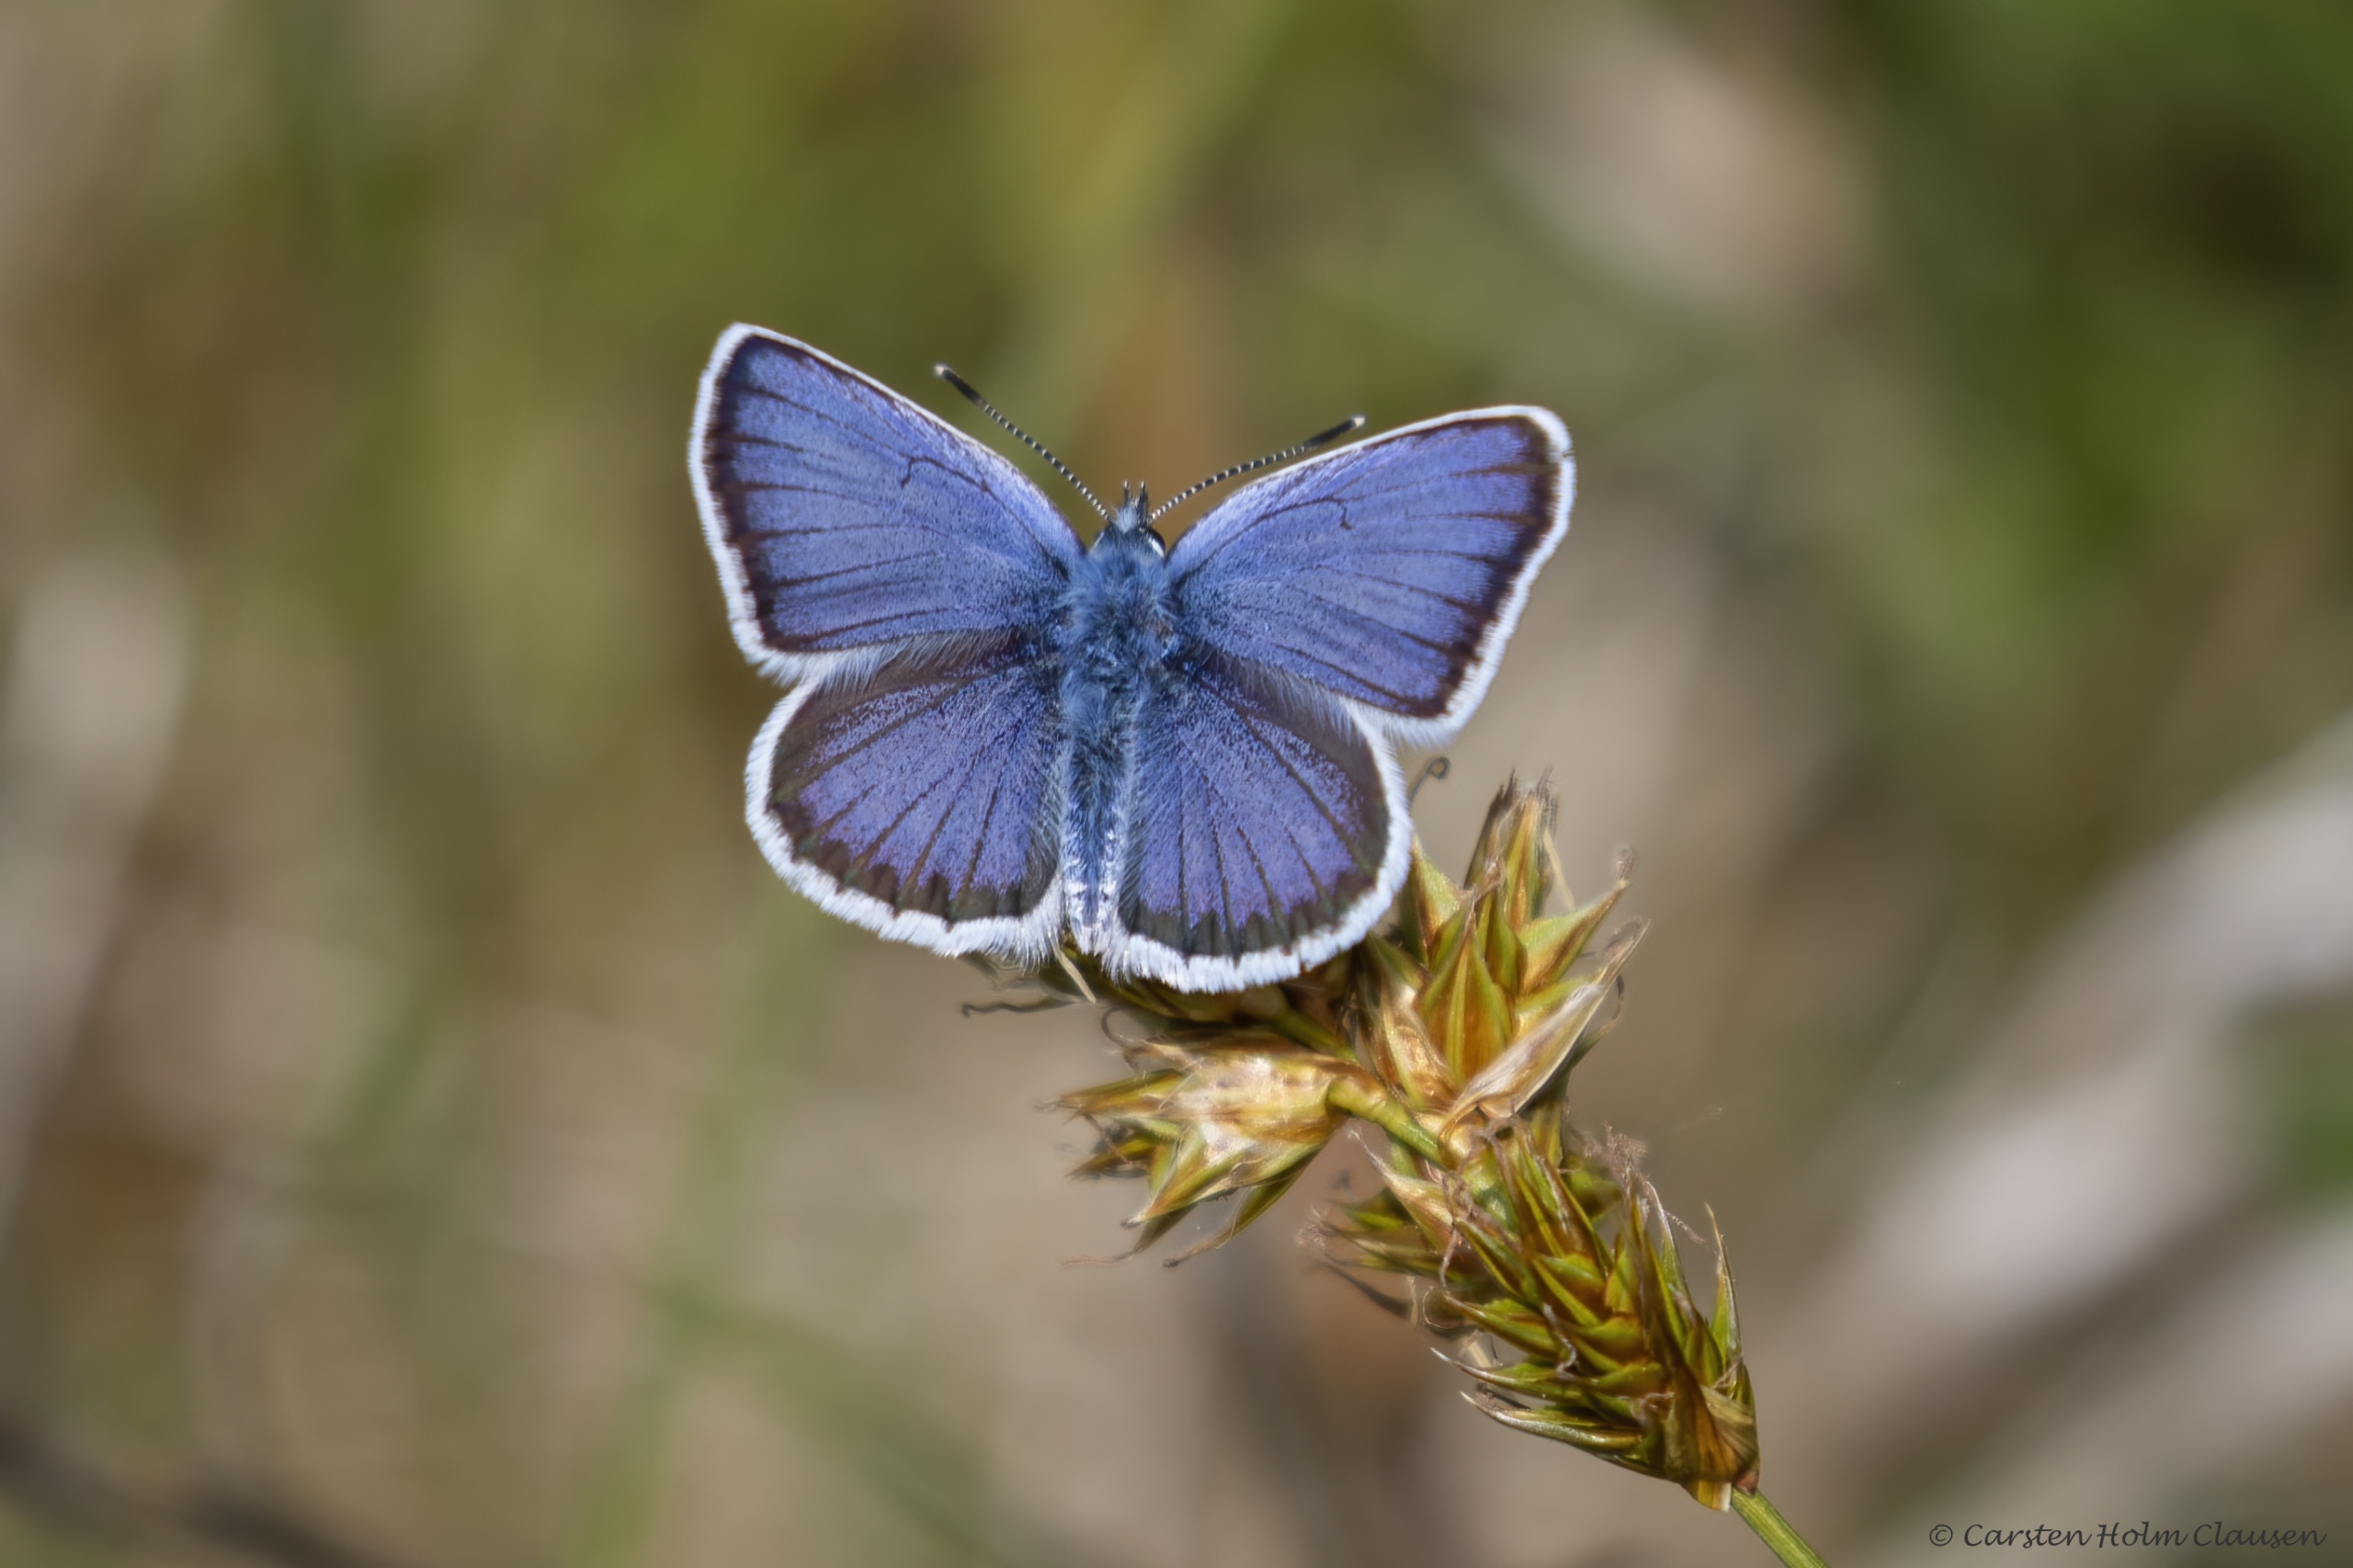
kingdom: Animalia
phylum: Arthropoda
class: Insecta
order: Lepidoptera
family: Lycaenidae
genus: Plebejus
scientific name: Plebejus argus
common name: Argusblåfugl
